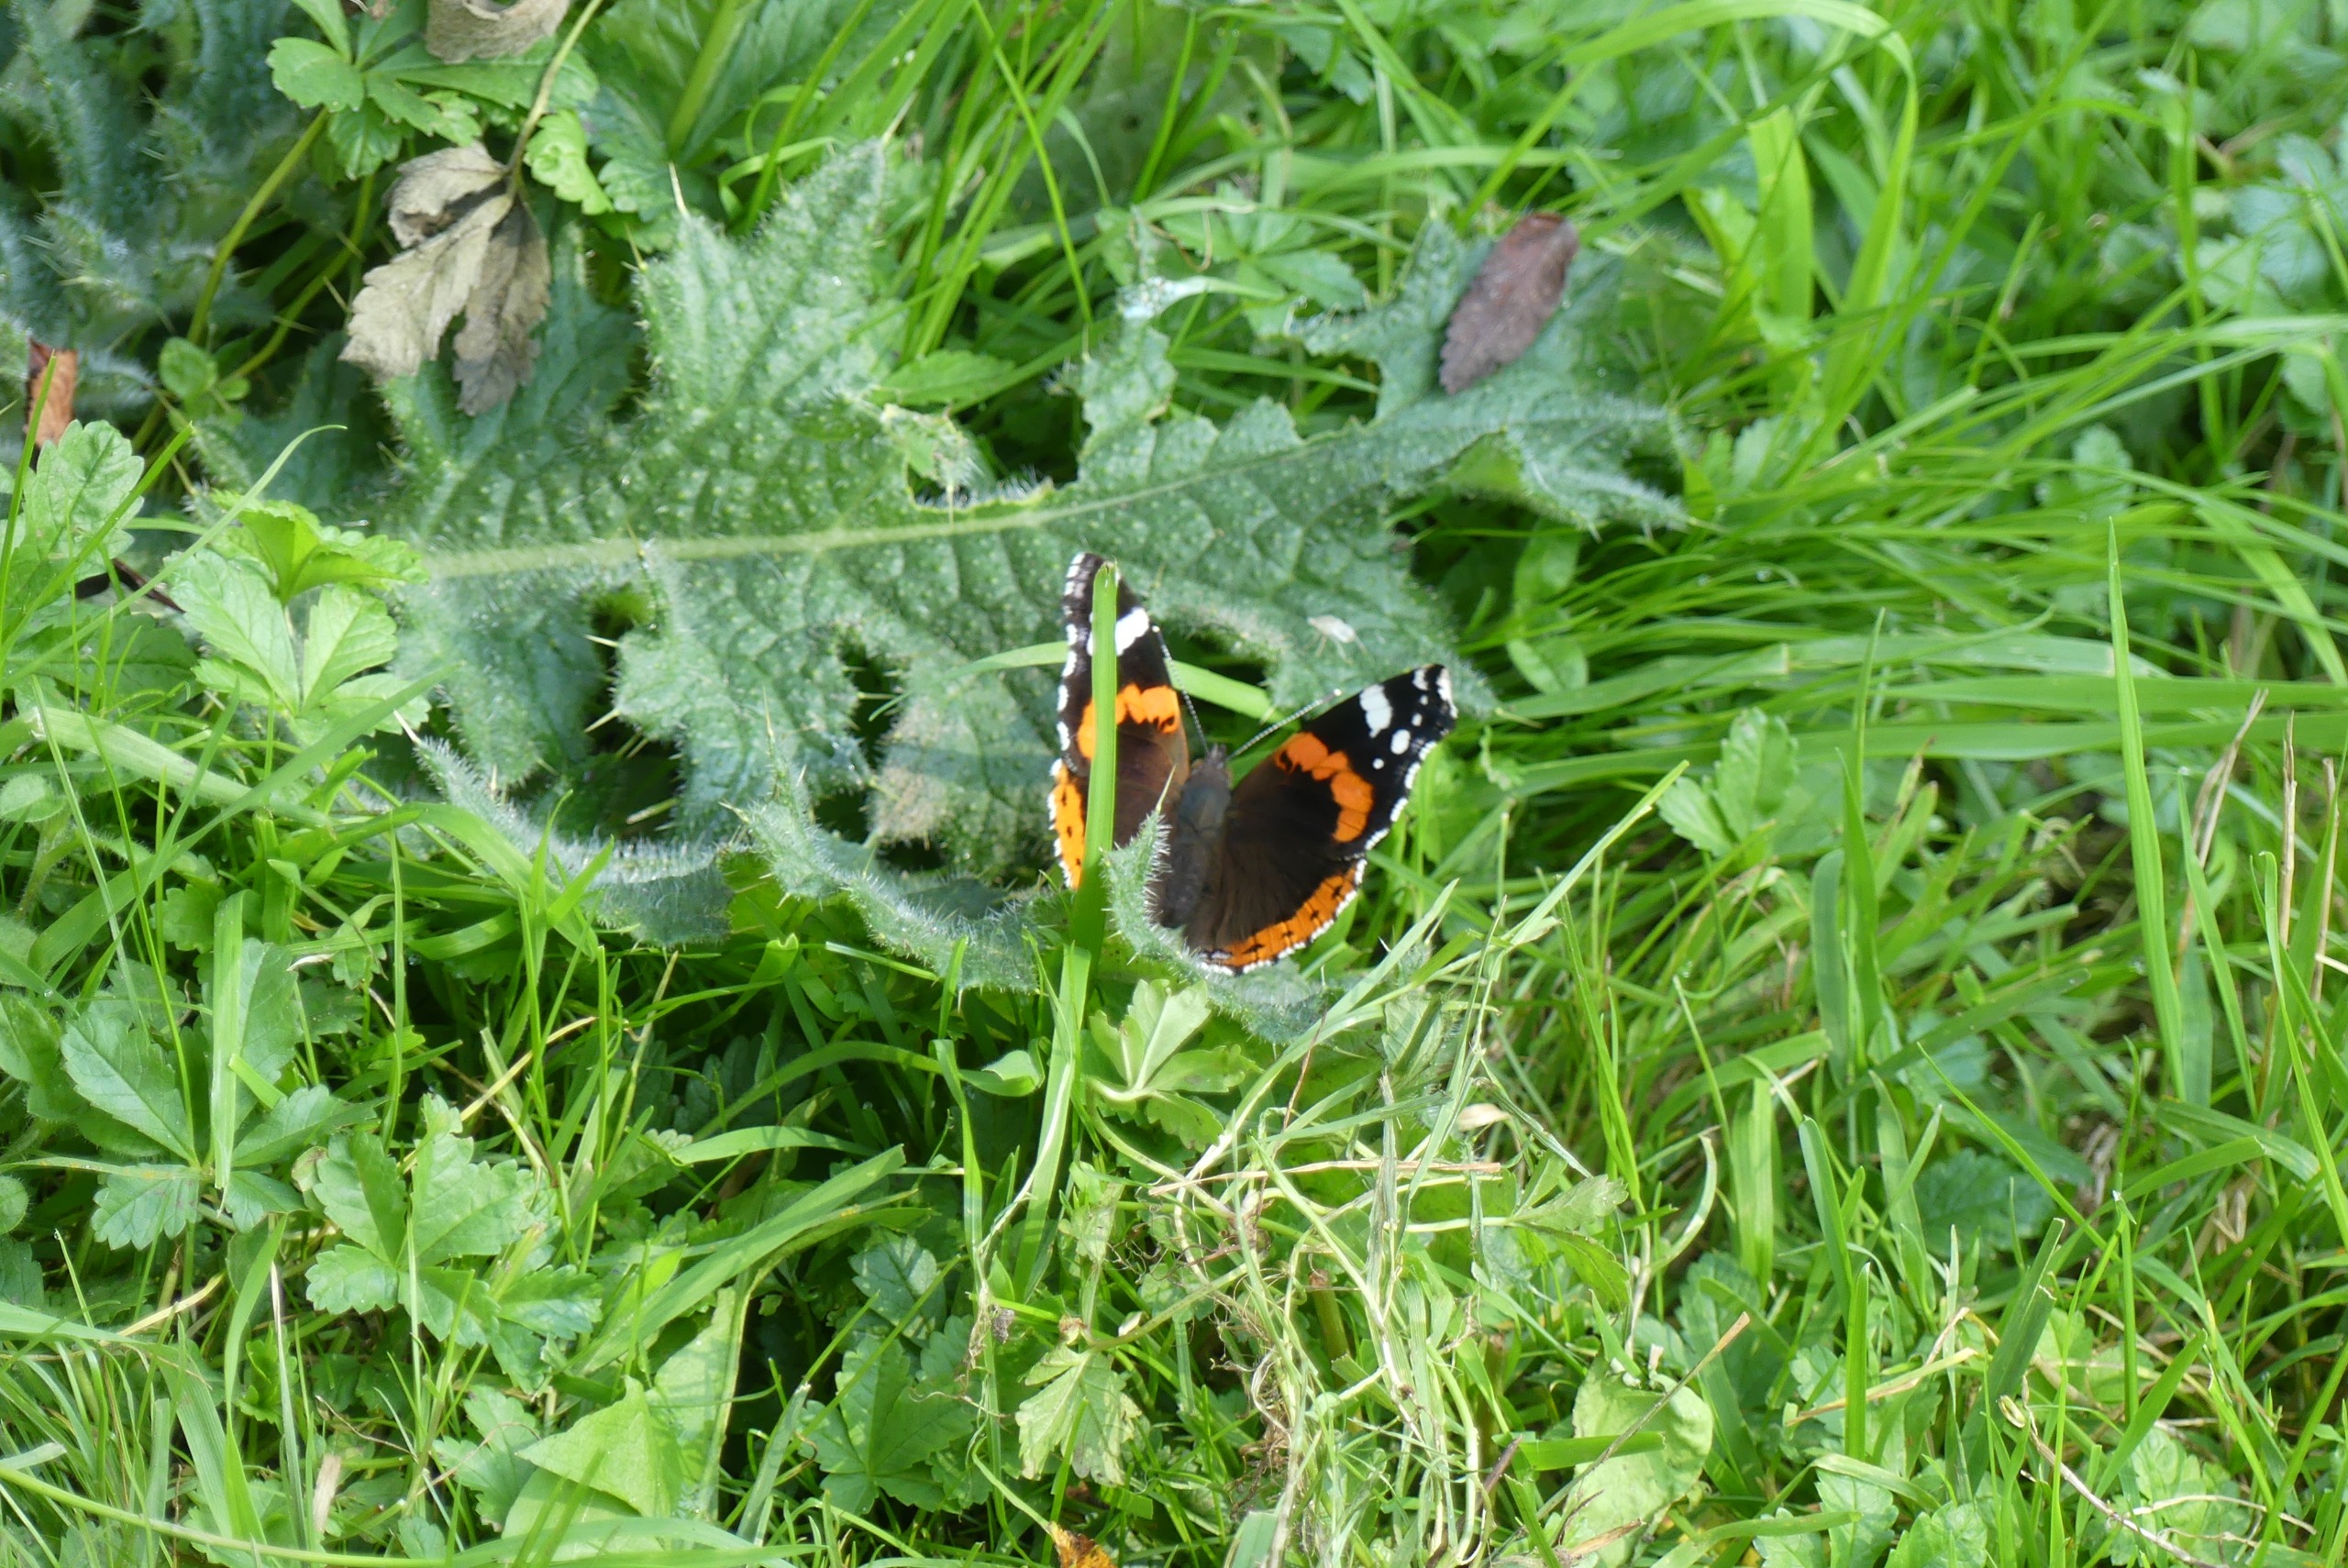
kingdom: Animalia
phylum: Arthropoda
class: Insecta
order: Lepidoptera
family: Nymphalidae
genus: Vanessa
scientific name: Vanessa atalanta
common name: Admiral
